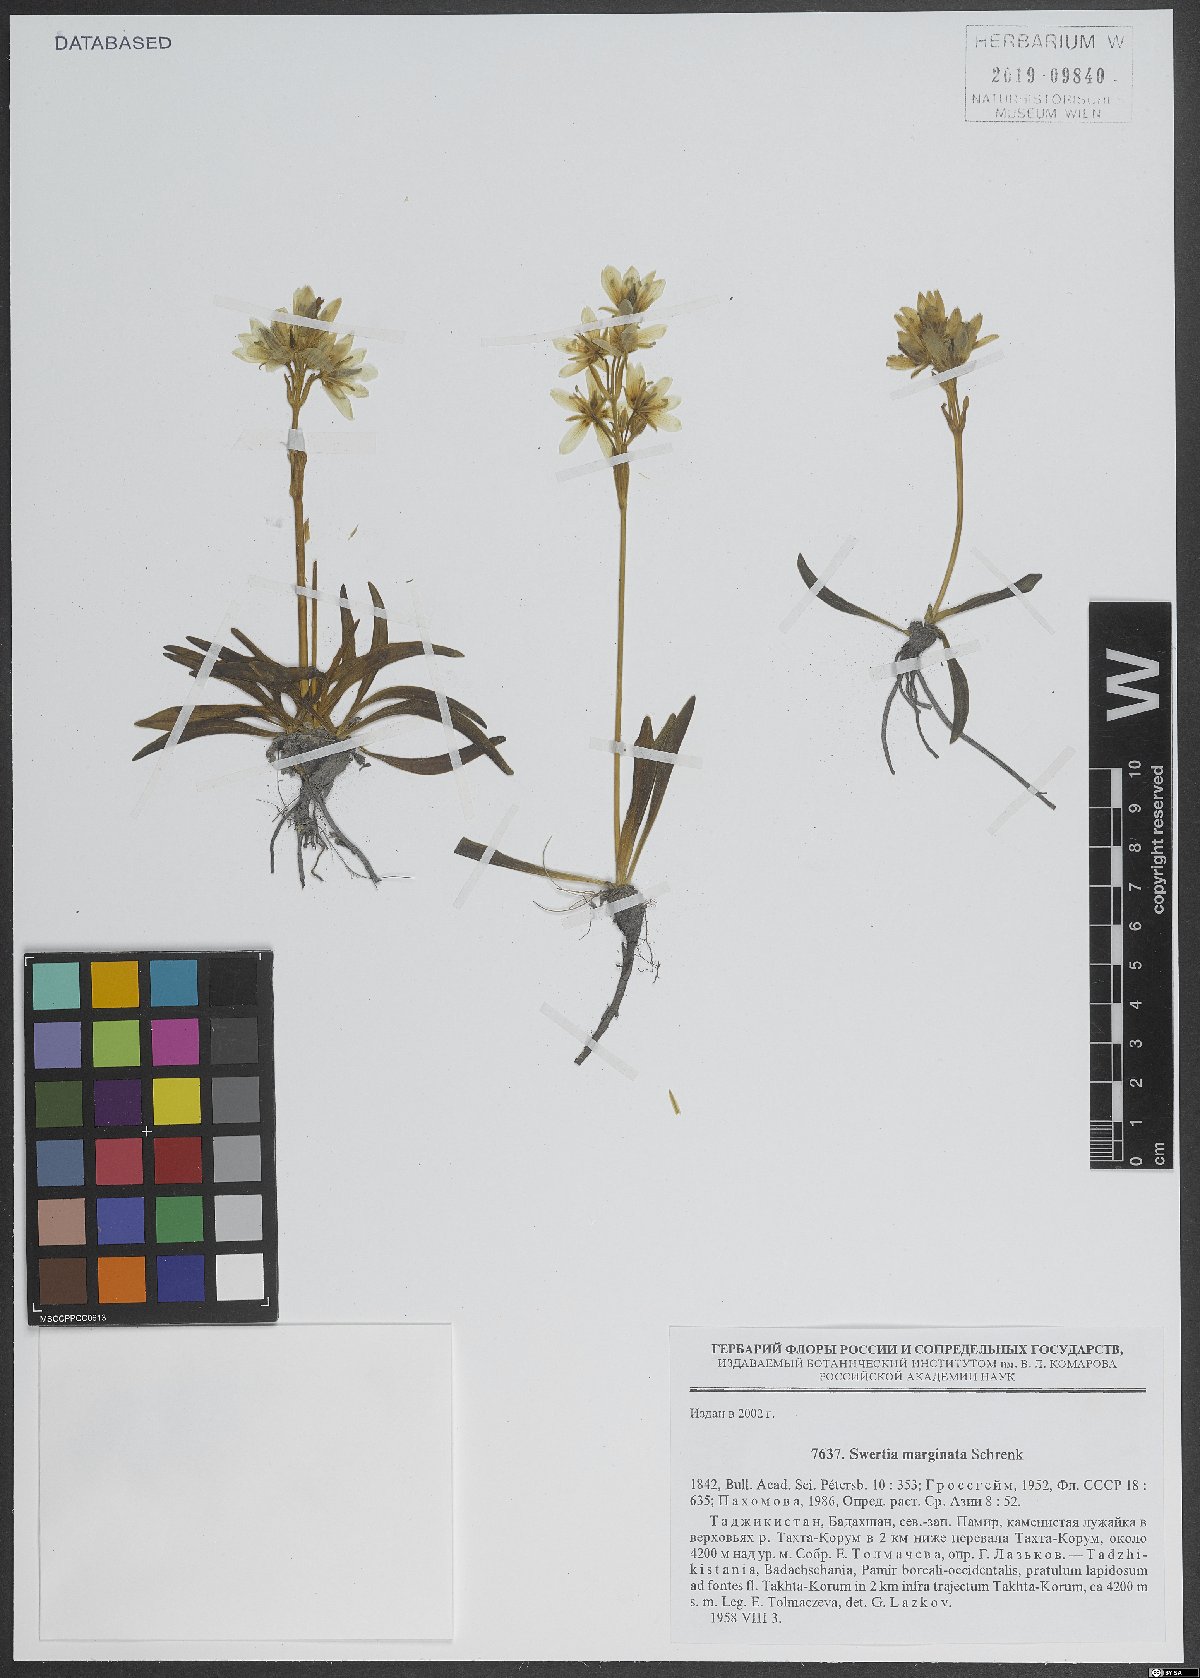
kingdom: Plantae
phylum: Tracheophyta
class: Magnoliopsida
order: Gentianales
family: Gentianaceae
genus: Swertia
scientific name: Swertia marginata
